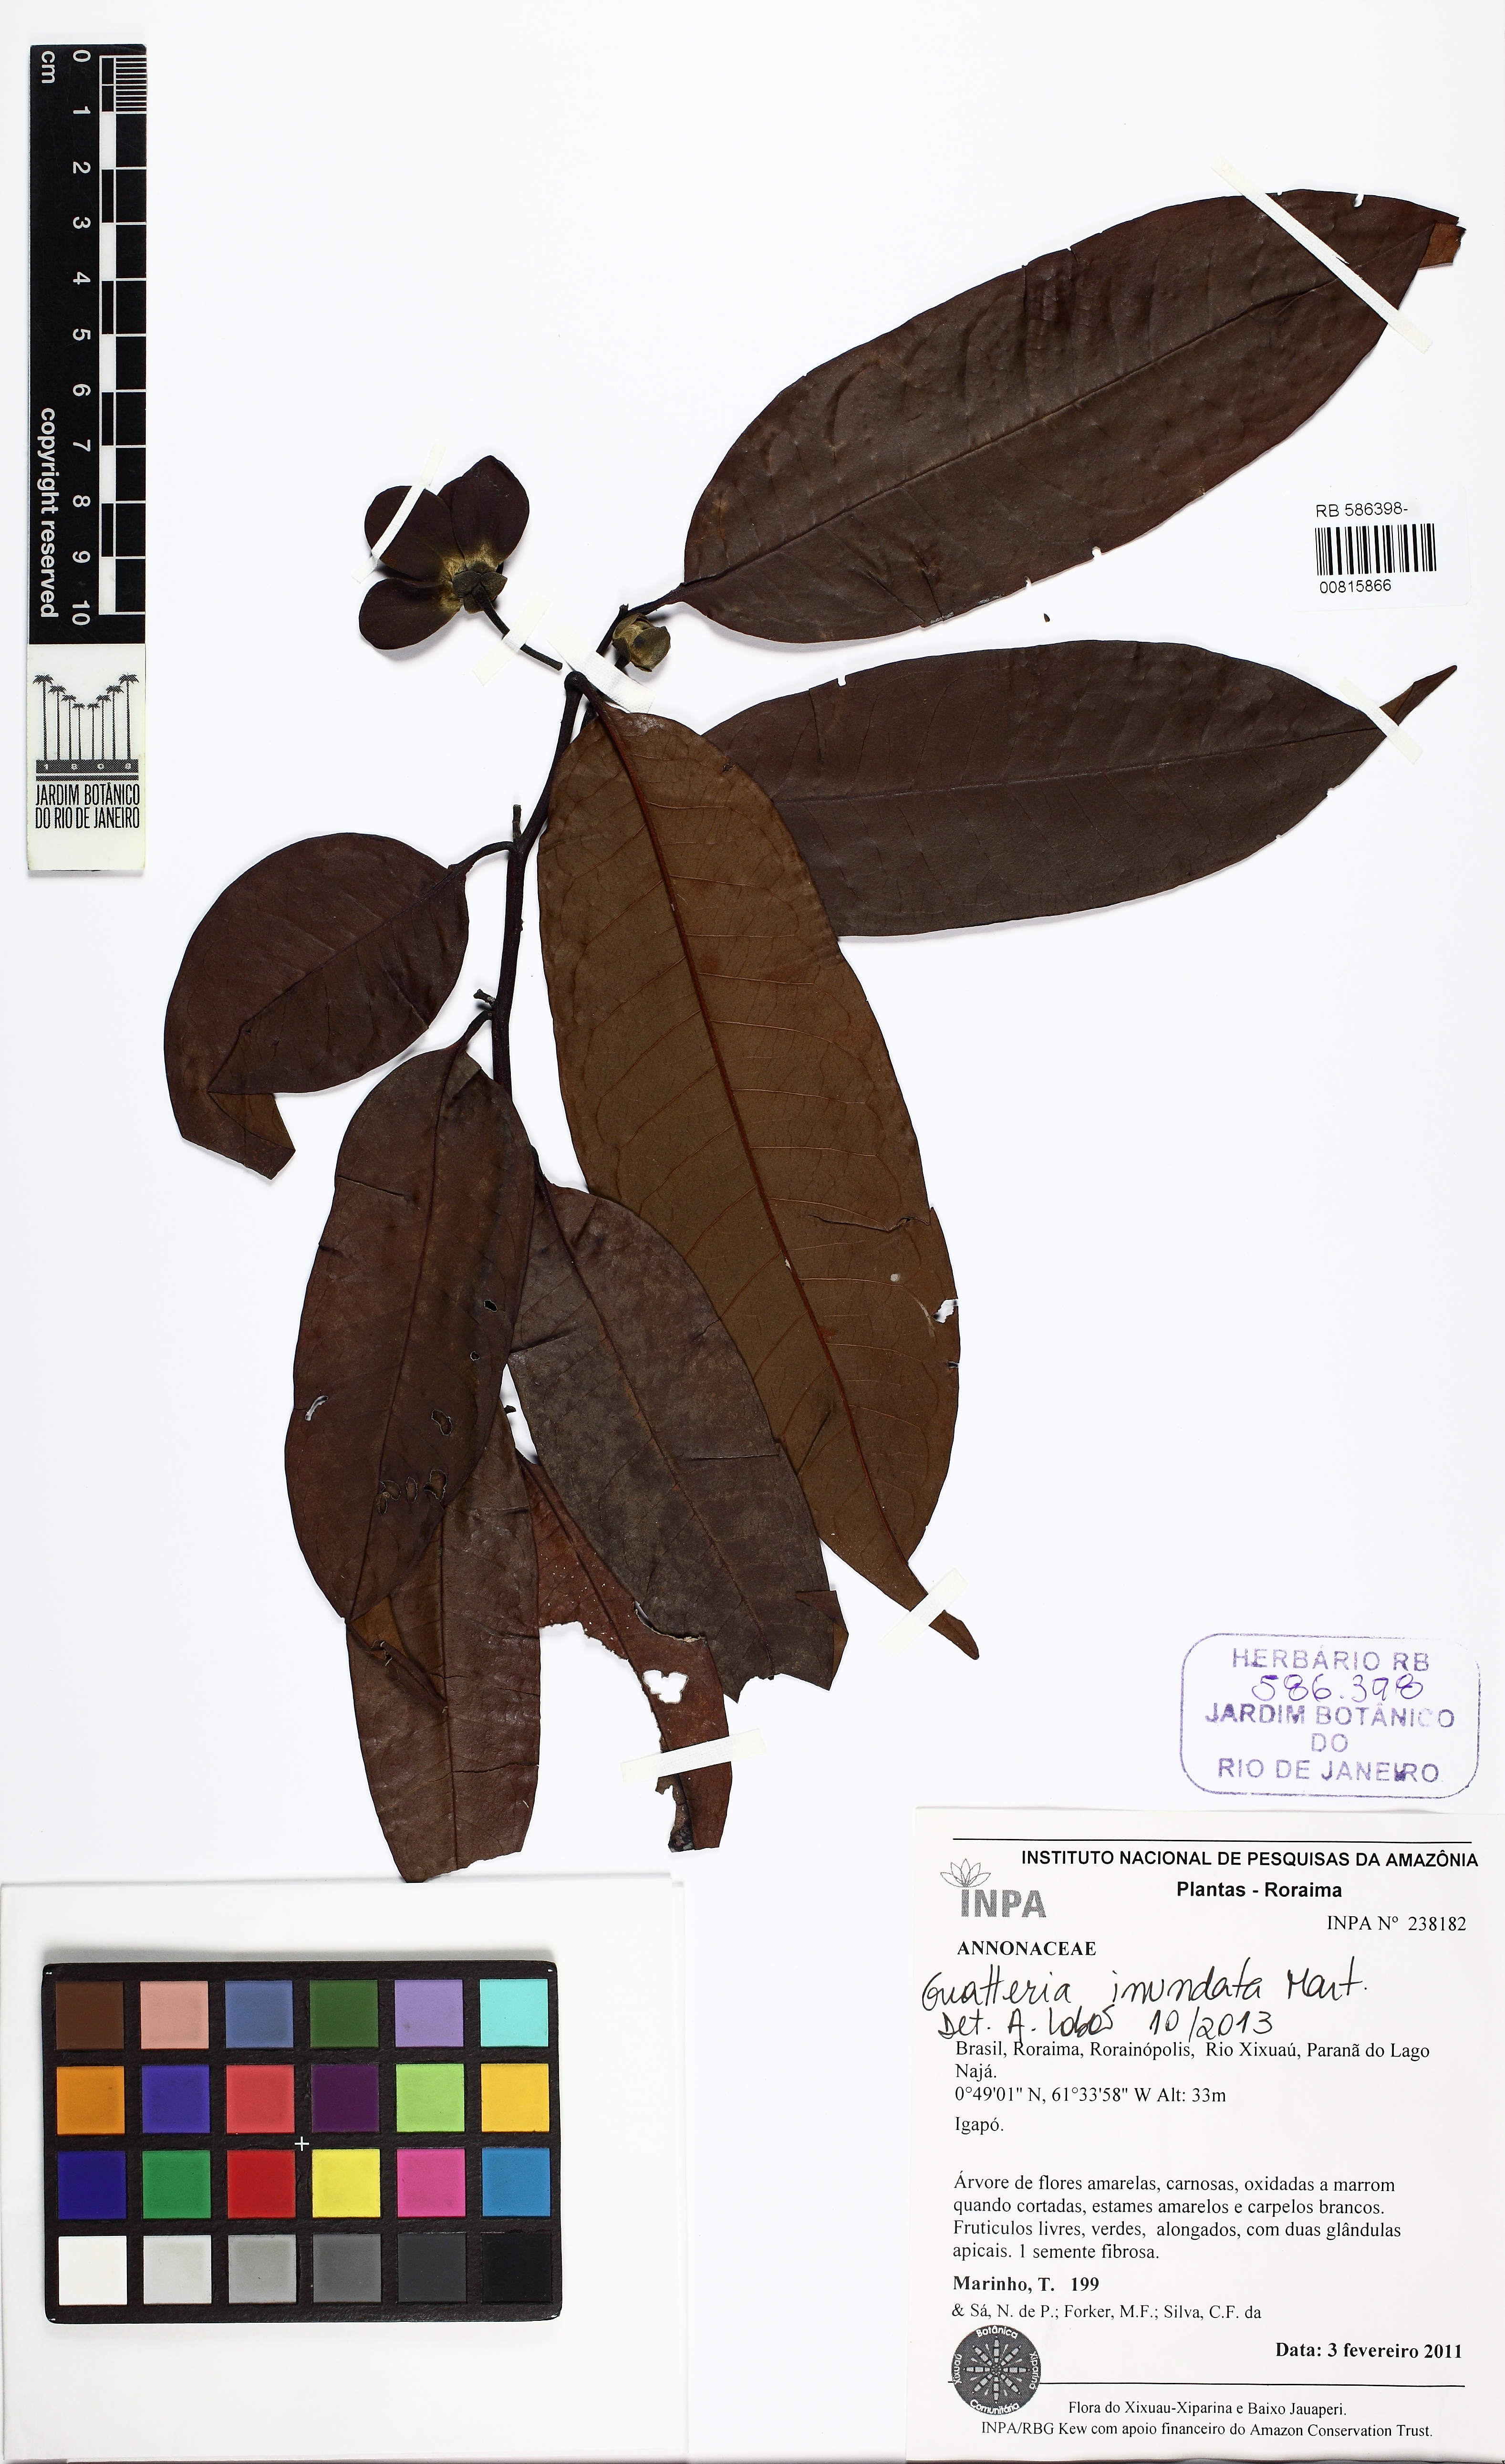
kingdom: Plantae
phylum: Tracheophyta
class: Magnoliopsida
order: Magnoliales
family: Annonaceae
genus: Guatteria
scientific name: Guatteria inundata
